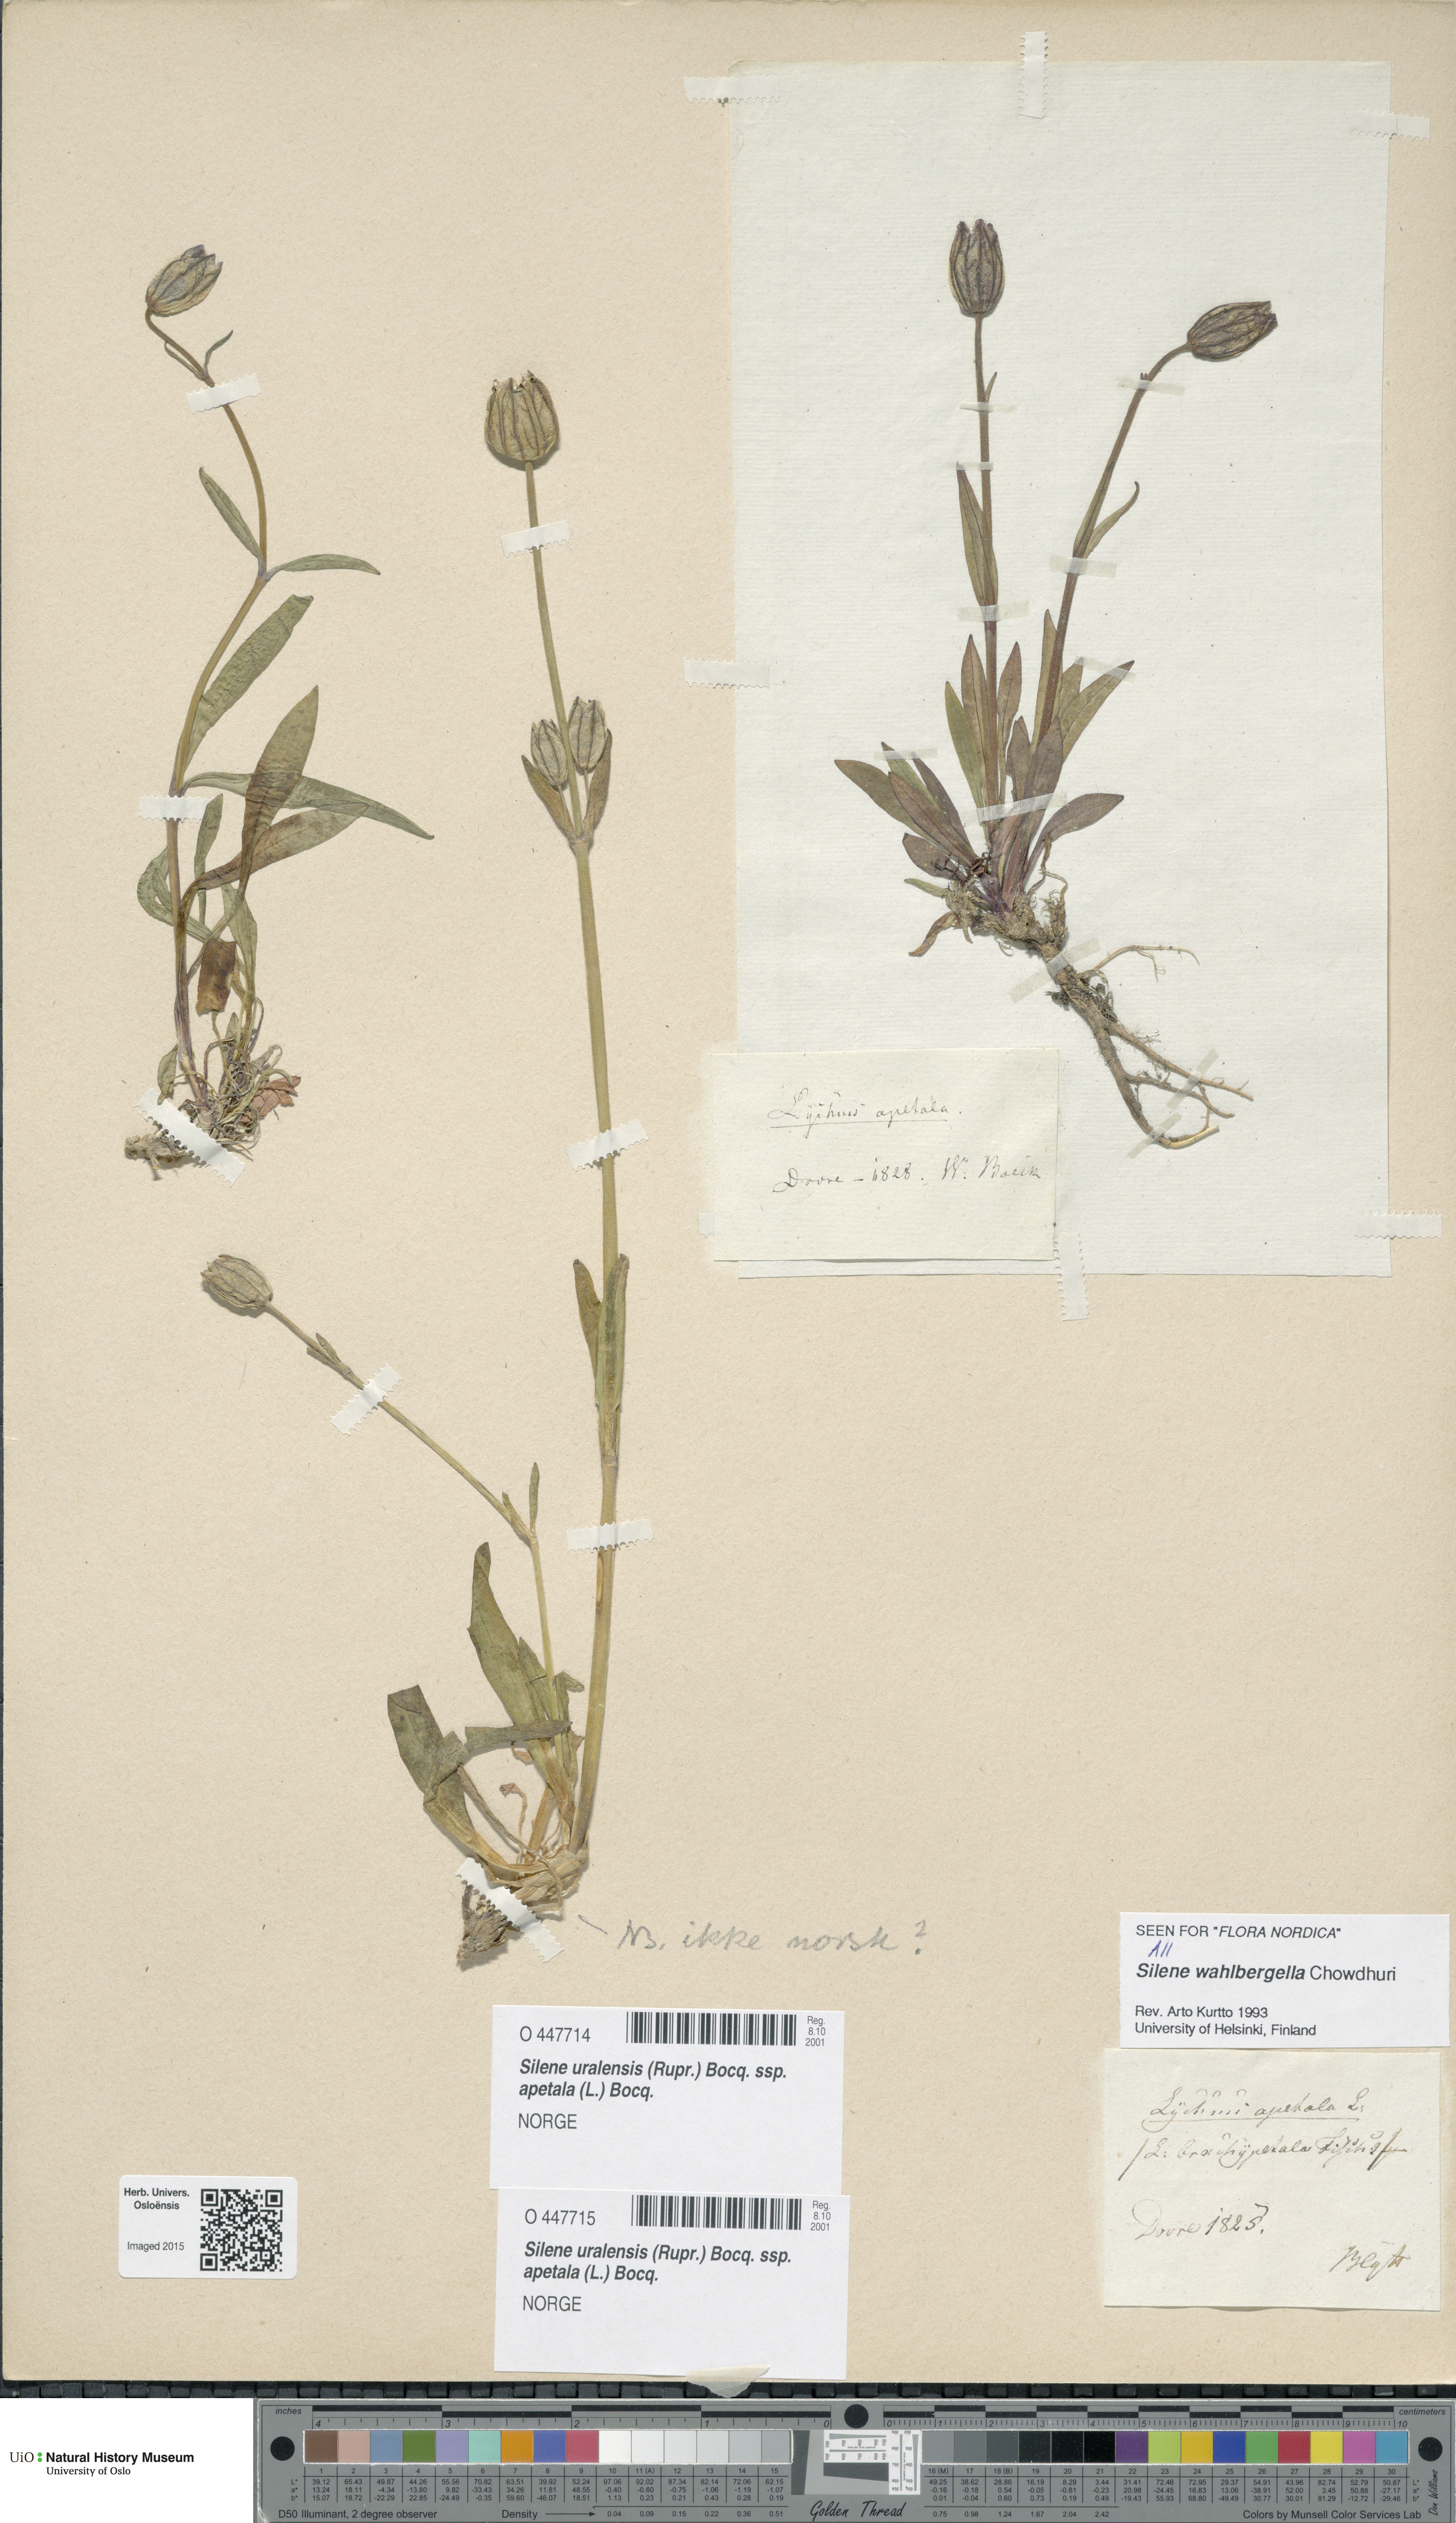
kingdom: Plantae
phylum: Tracheophyta
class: Magnoliopsida
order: Caryophyllales
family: Caryophyllaceae
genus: Silene
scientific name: Silene wahlbergella
